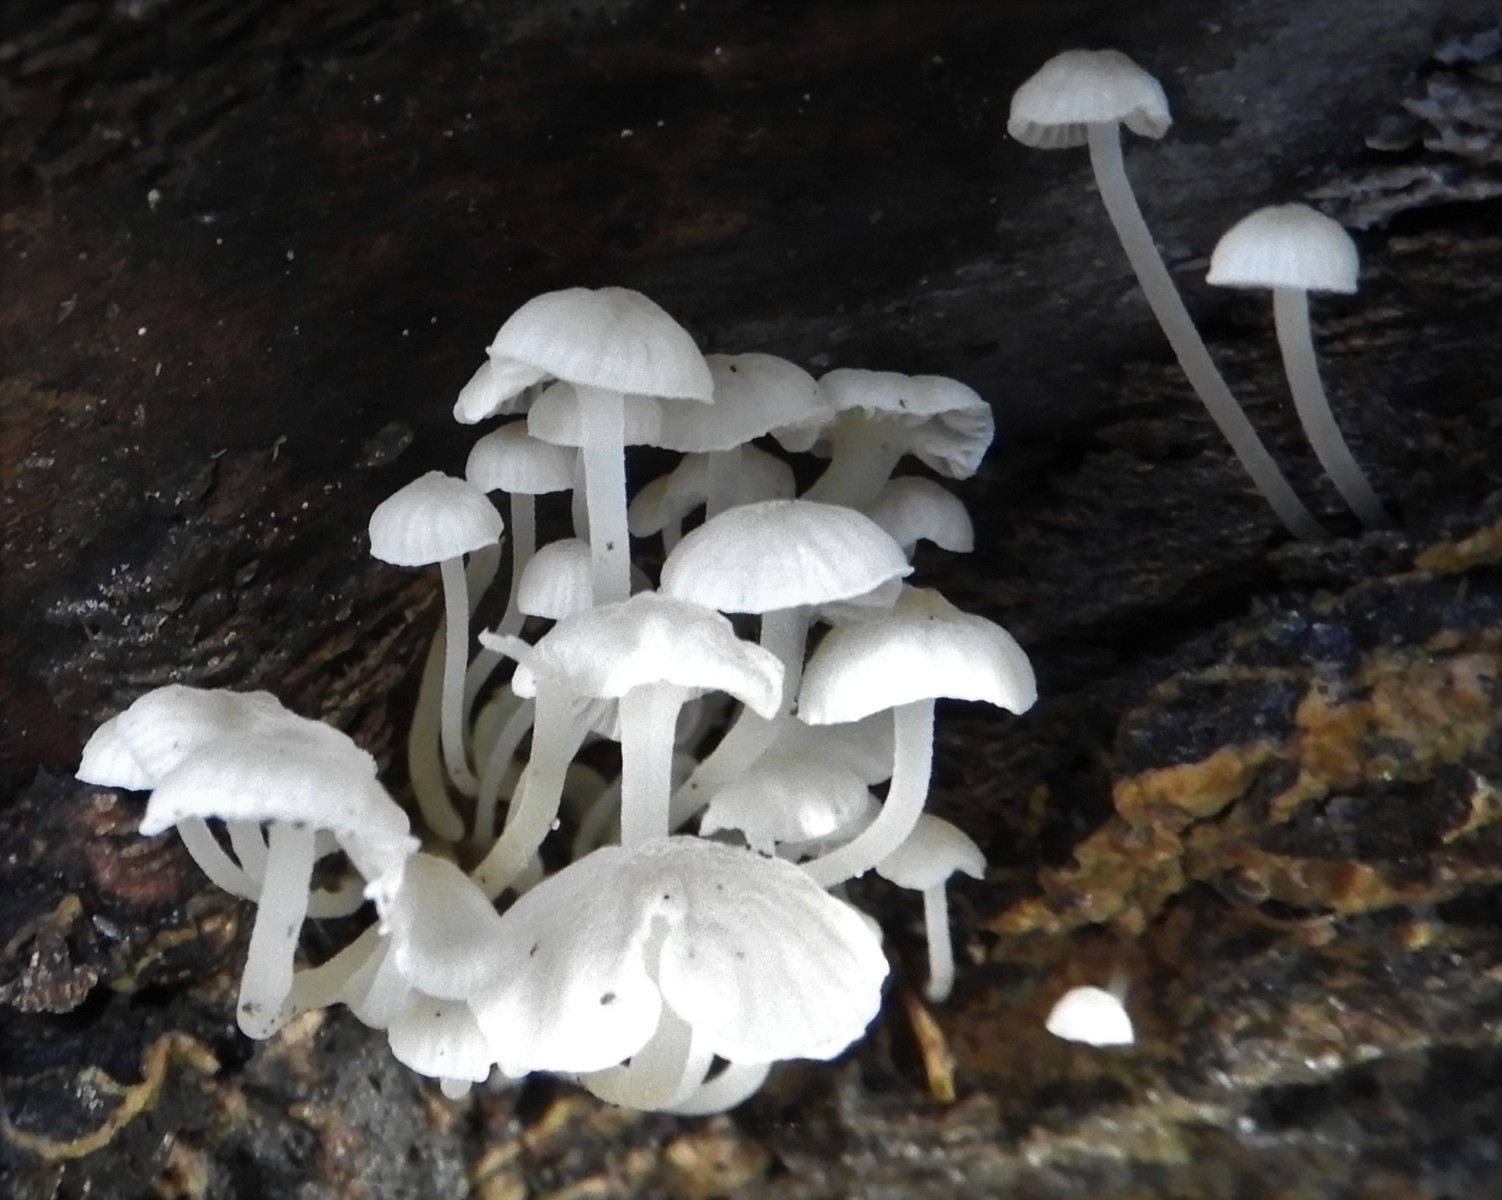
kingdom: Fungi
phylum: Basidiomycota
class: Agaricomycetes
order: Agaricales
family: Porotheleaceae
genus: Phloeomana
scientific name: Phloeomana speirea
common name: kvist-huesvamp
